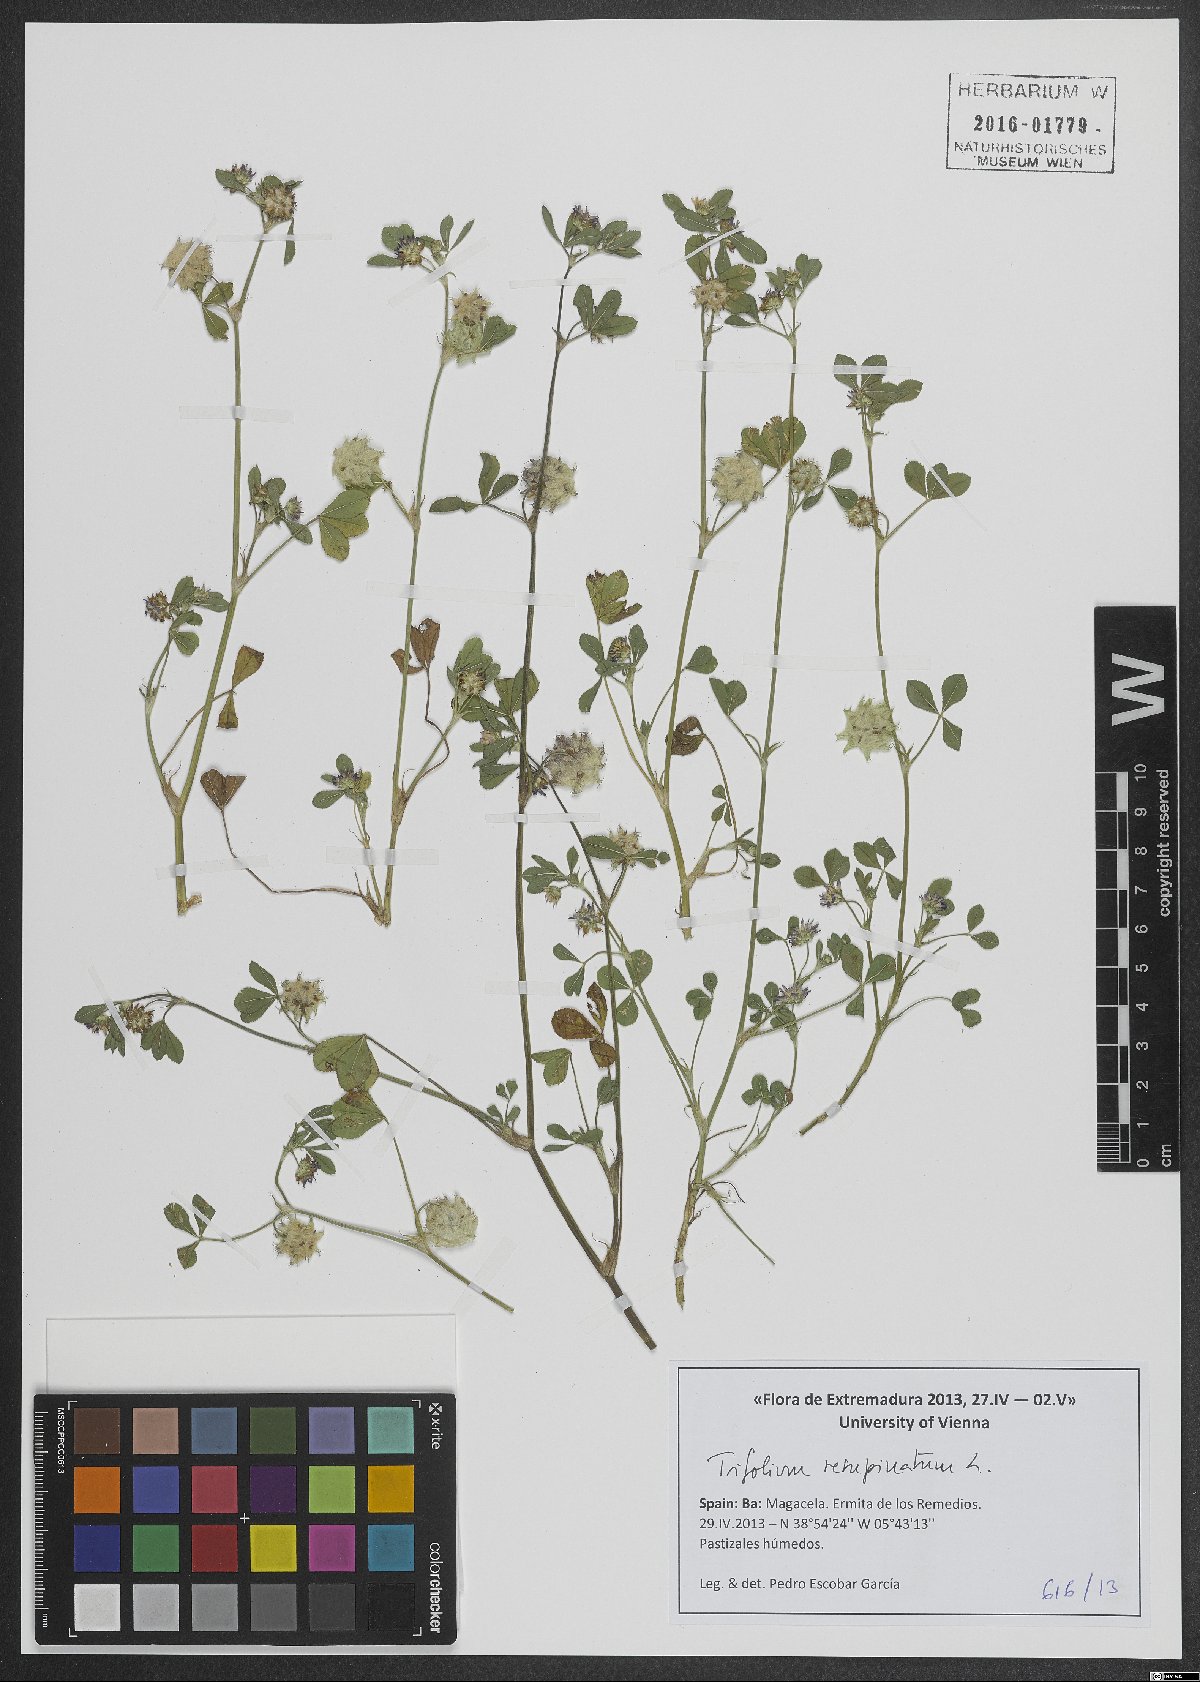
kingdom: Plantae
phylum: Tracheophyta
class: Magnoliopsida
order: Fabales
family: Fabaceae
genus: Trifolium
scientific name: Trifolium resupinatum
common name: Reversed clover
